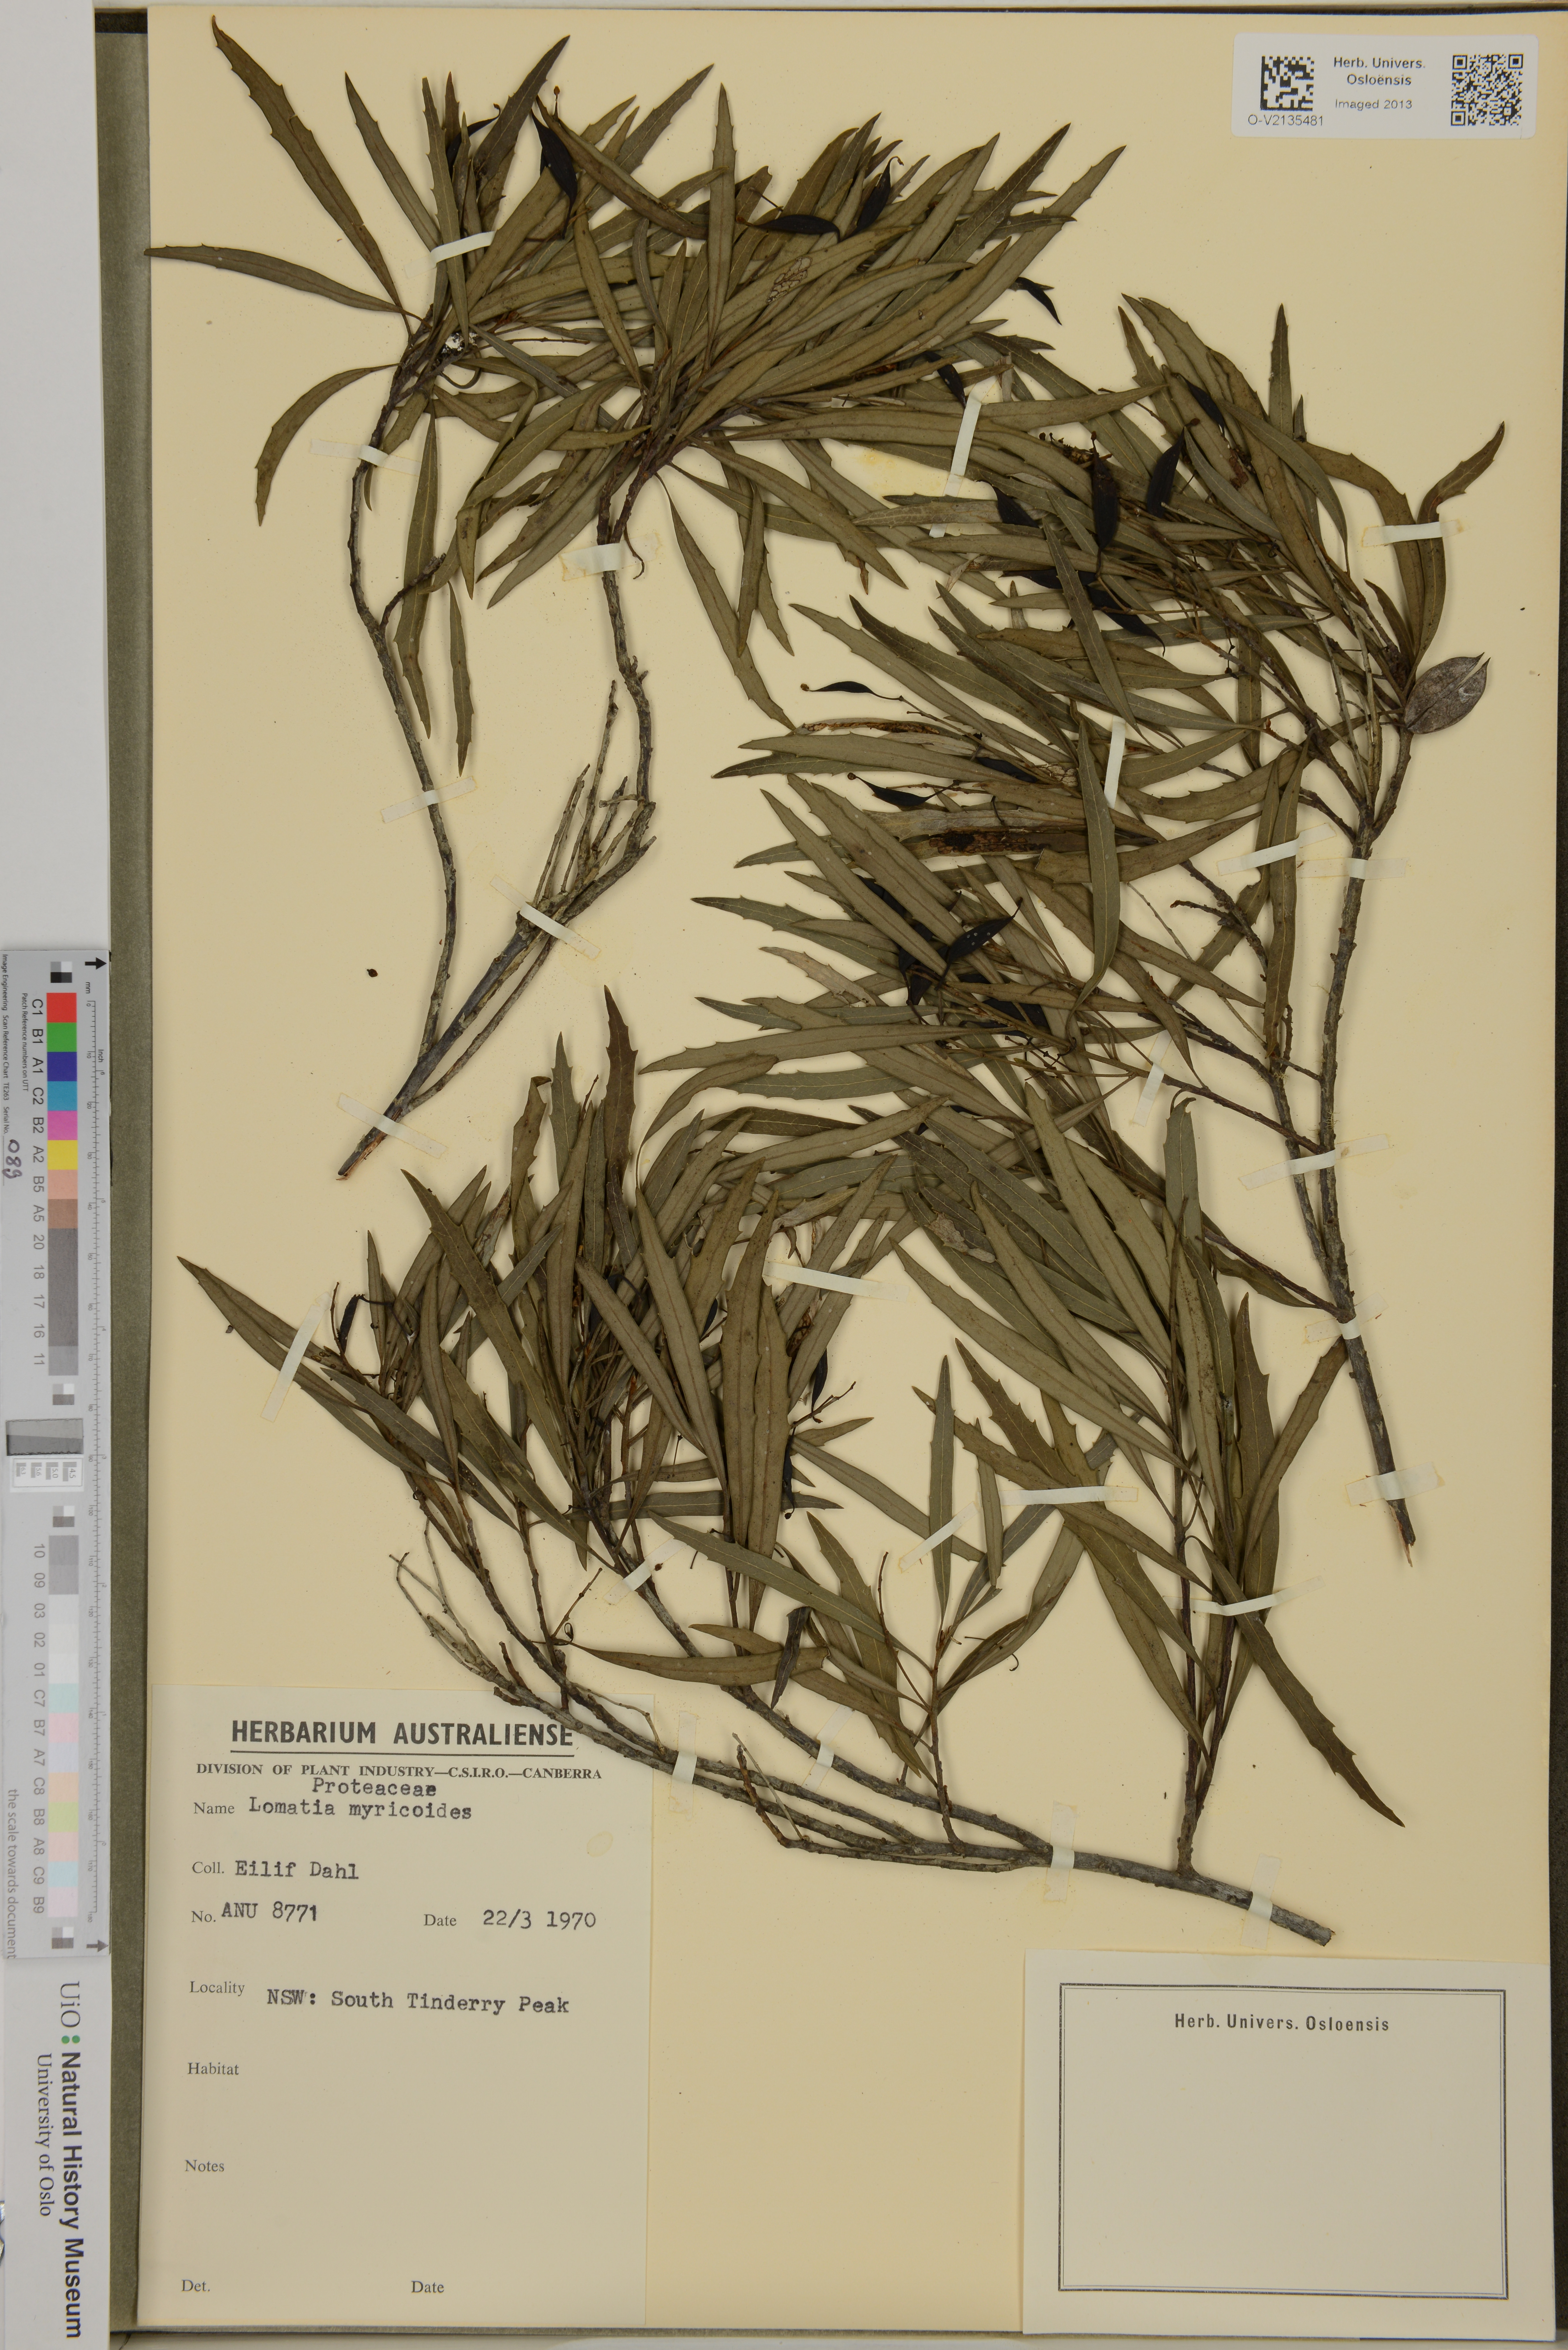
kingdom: Plantae
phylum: Tracheophyta
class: Magnoliopsida
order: Proteales
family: Proteaceae
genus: Lomatia
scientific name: Lomatia myricoides
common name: Longleaf lomatia
